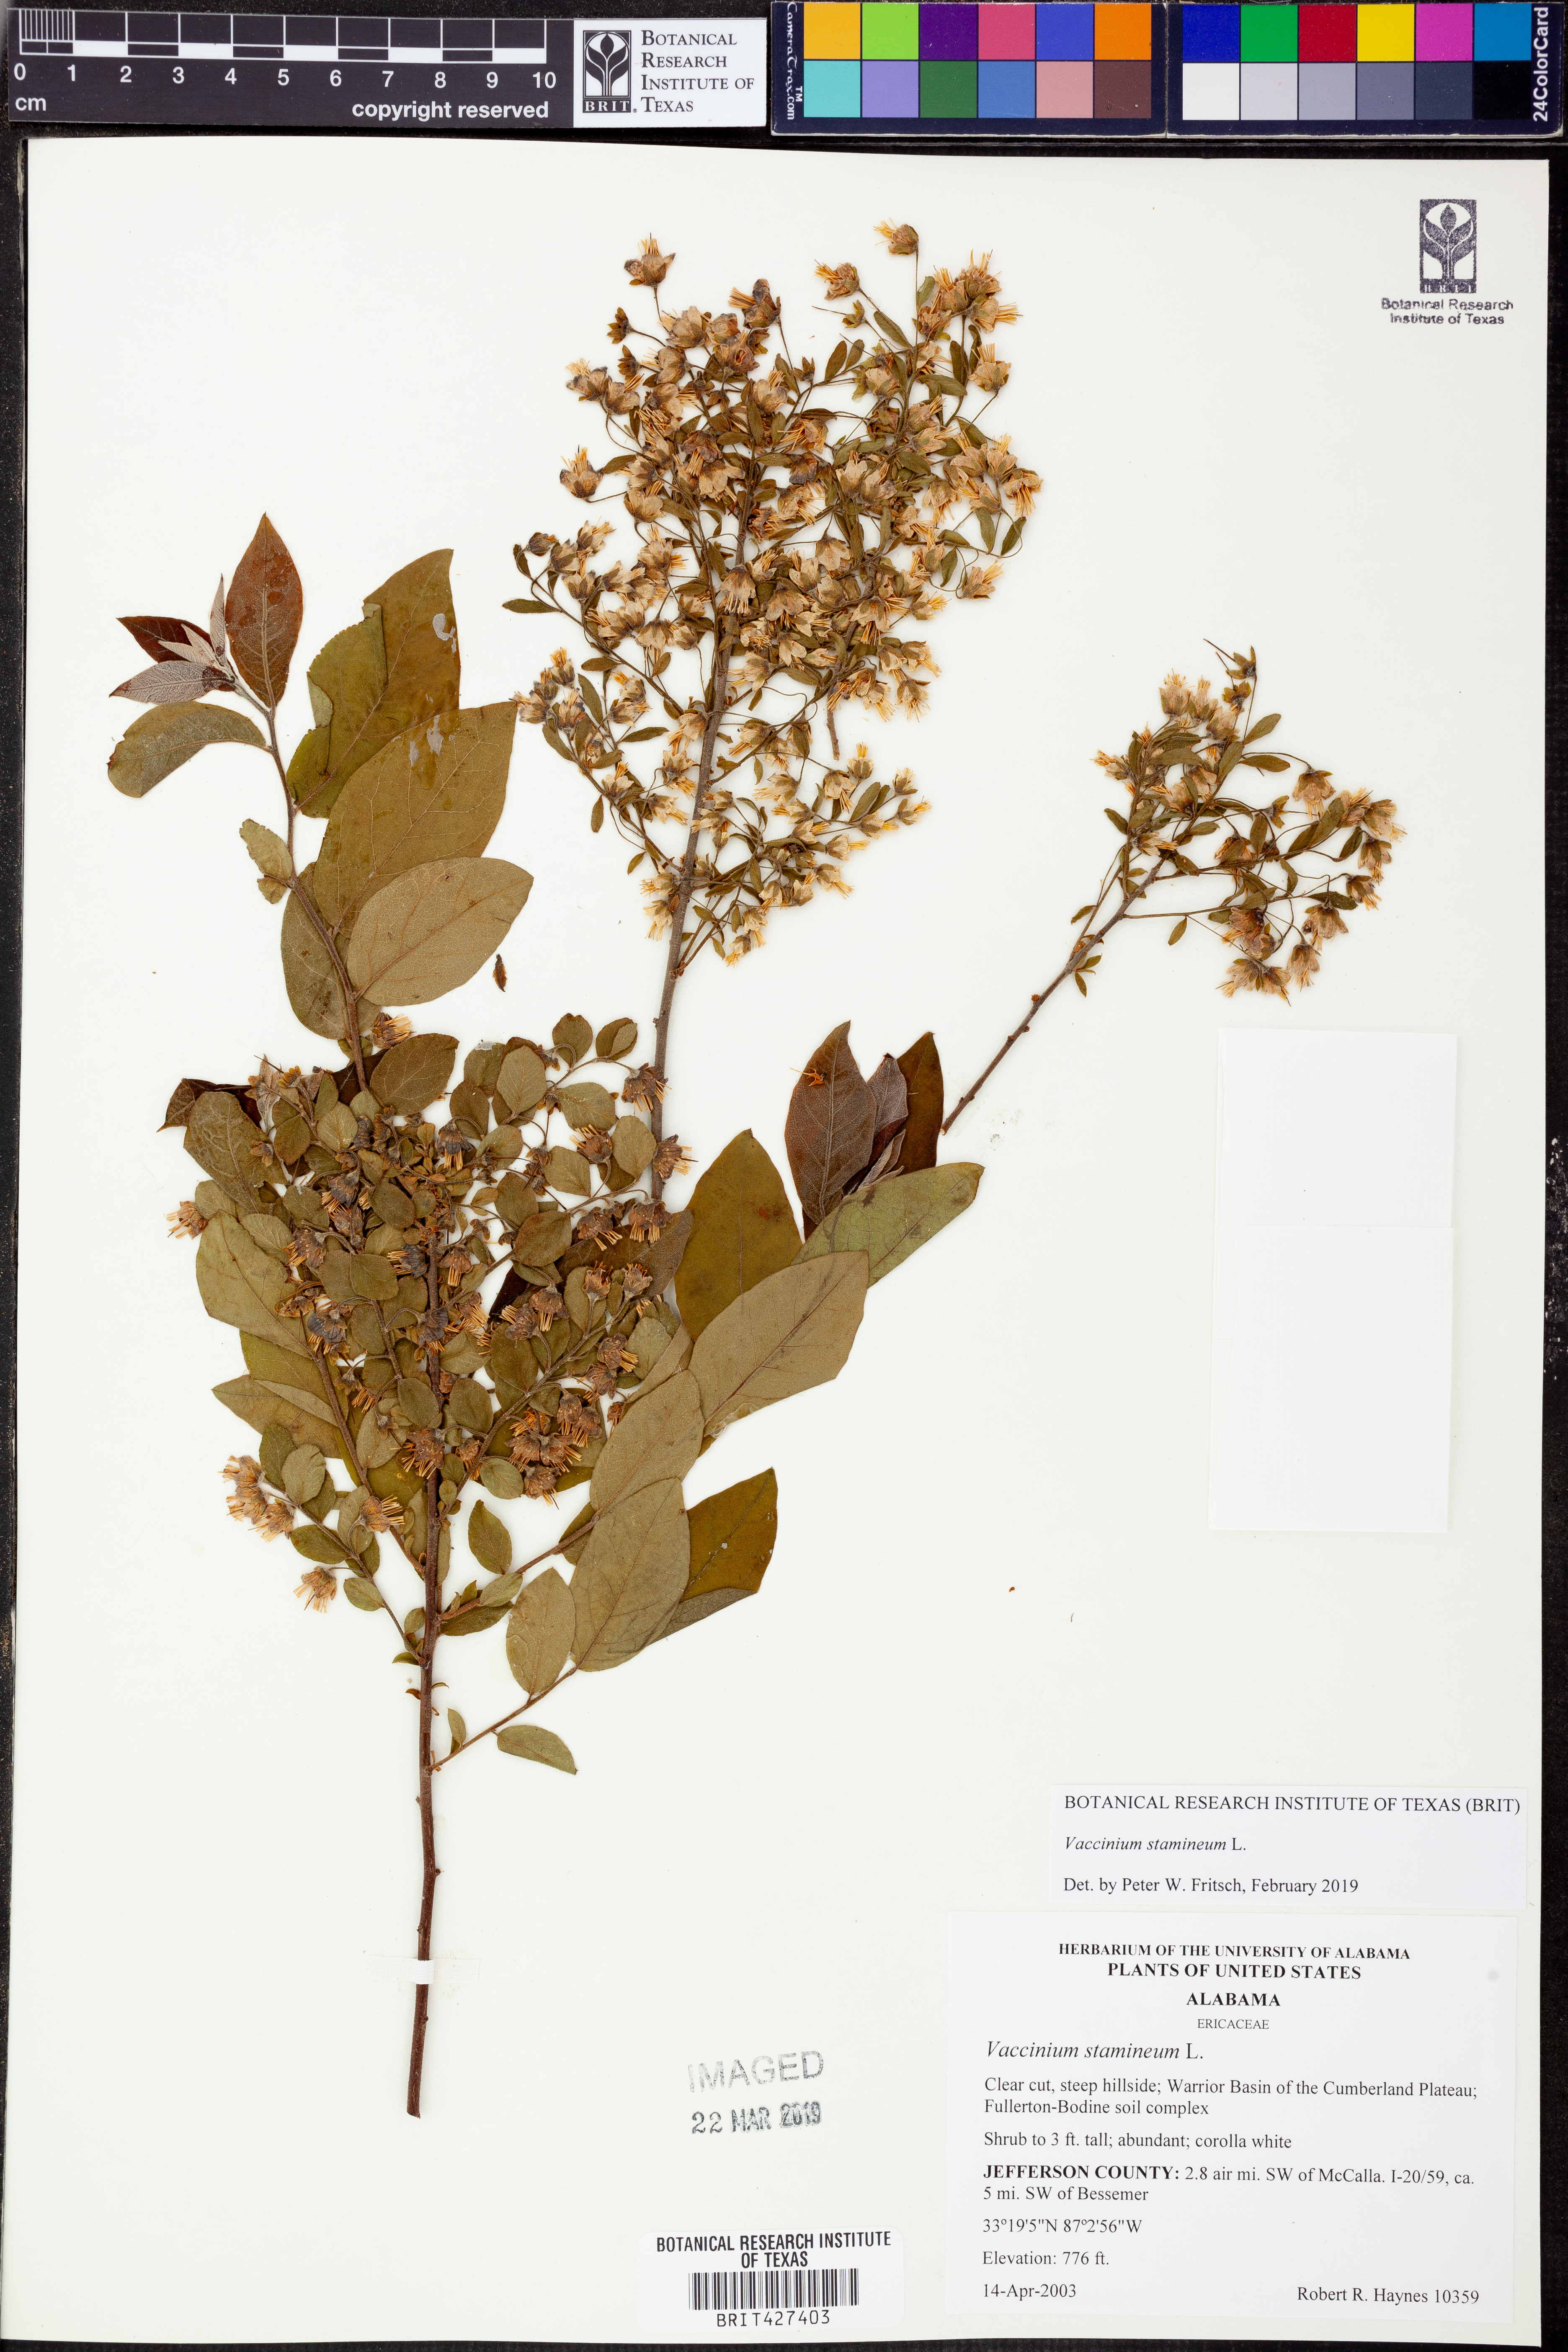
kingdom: Plantae
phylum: Tracheophyta
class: Magnoliopsida
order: Ericales
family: Ericaceae
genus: Vaccinium
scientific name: Vaccinium stamineum
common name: Deerberry
